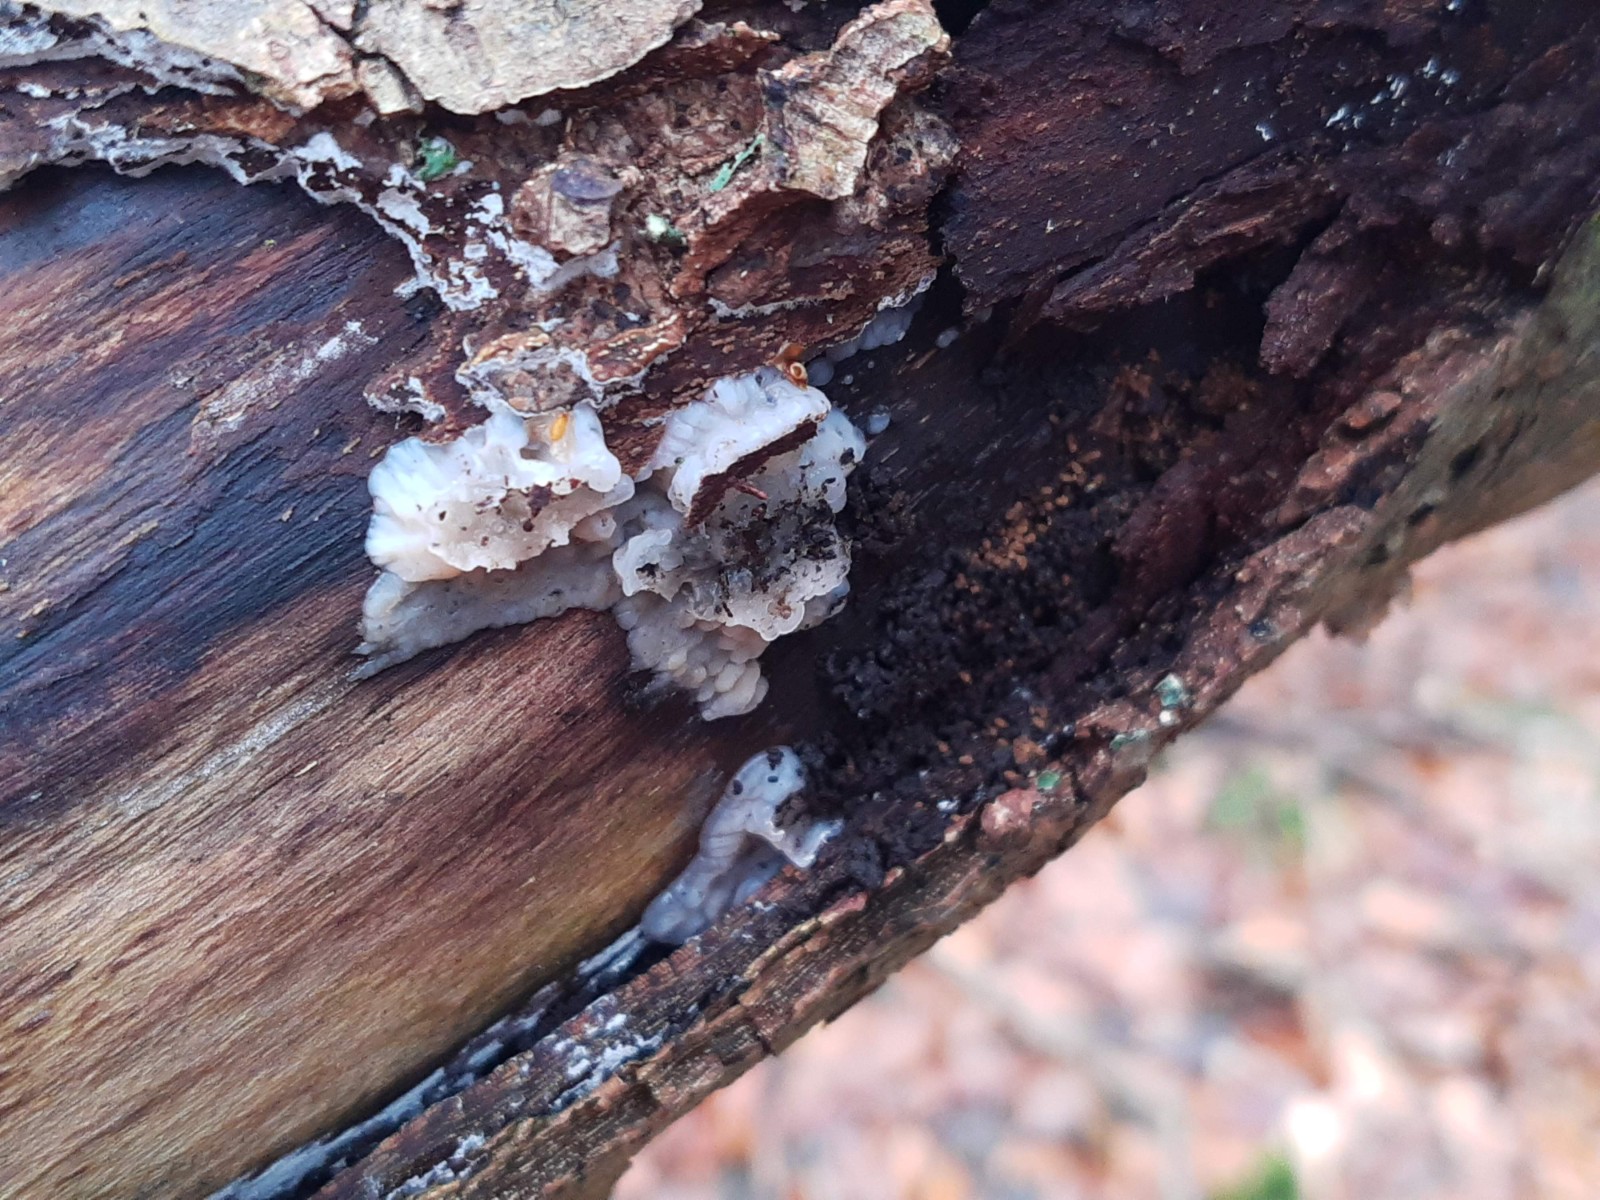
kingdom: Fungi
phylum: Basidiomycota
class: Agaricomycetes
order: Auriculariales
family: Auriculariaceae
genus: Exidia
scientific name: Exidia thuretiana
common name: hvidlig bævretop
